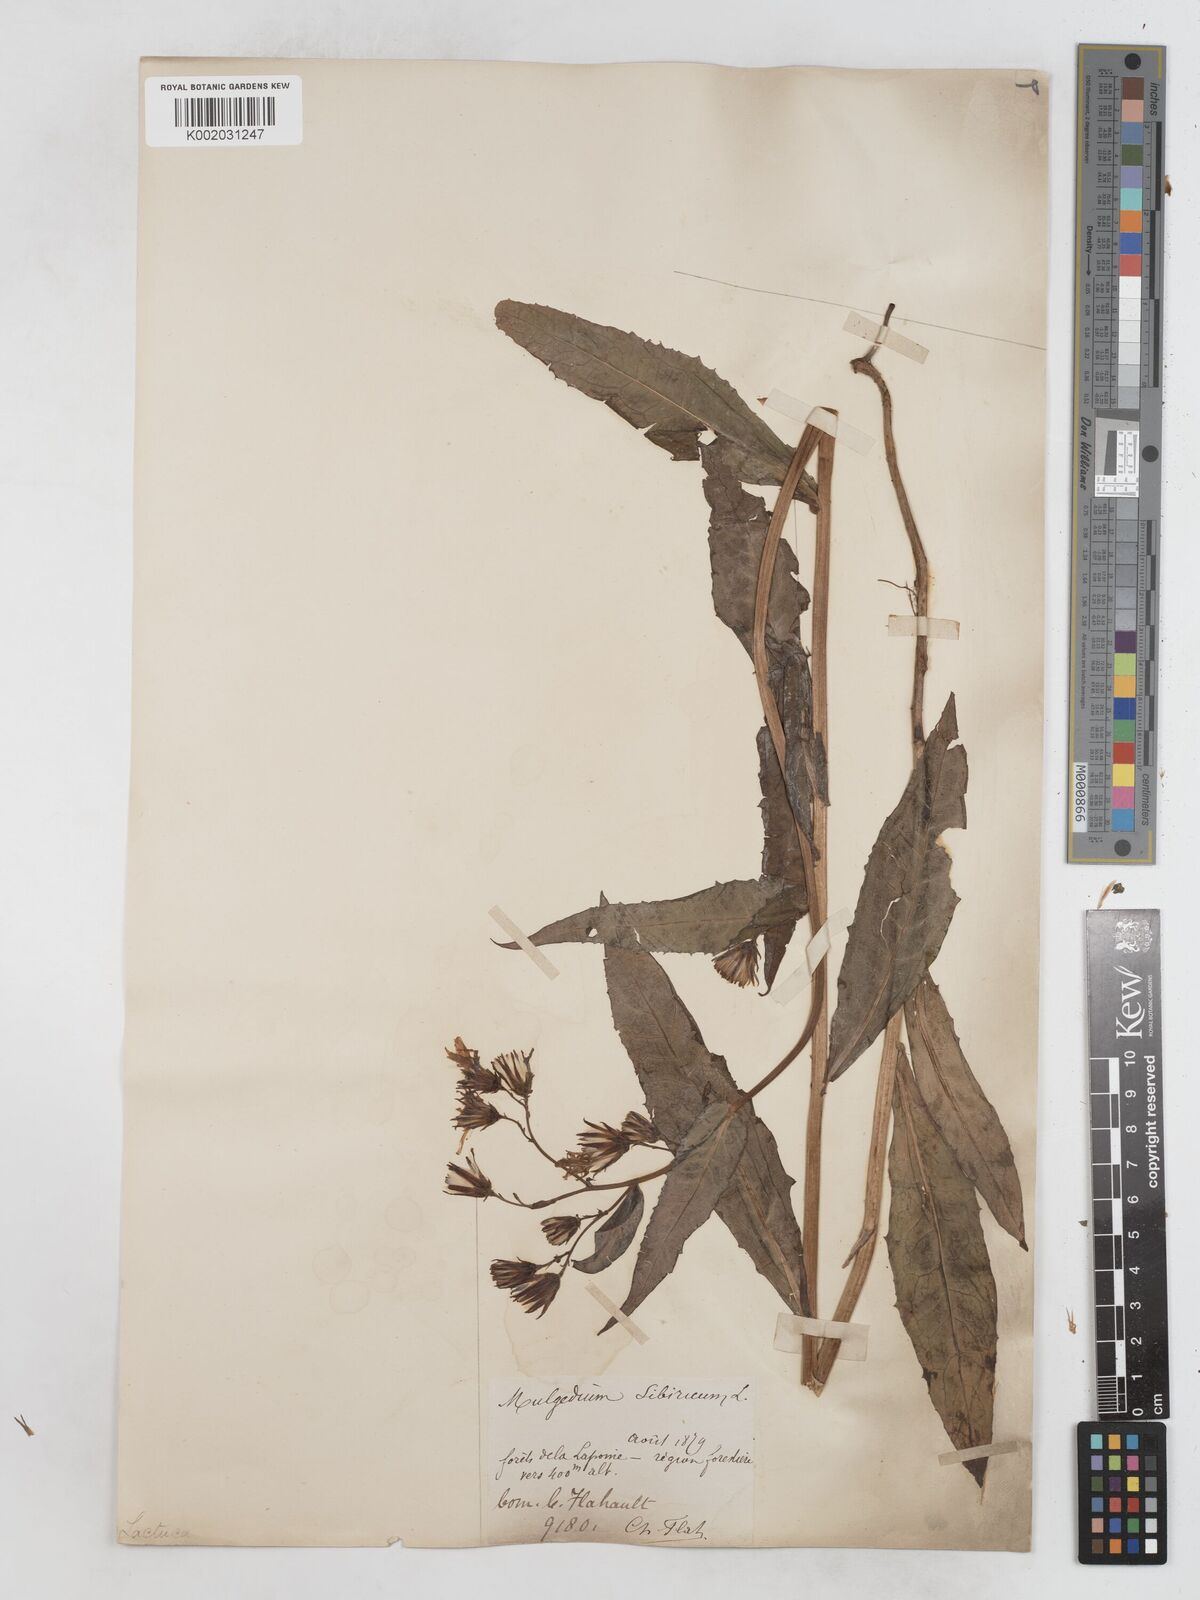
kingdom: Plantae
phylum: Tracheophyta
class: Magnoliopsida
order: Asterales
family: Asteraceae
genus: Lactuca
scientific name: Lactuca sibirica
